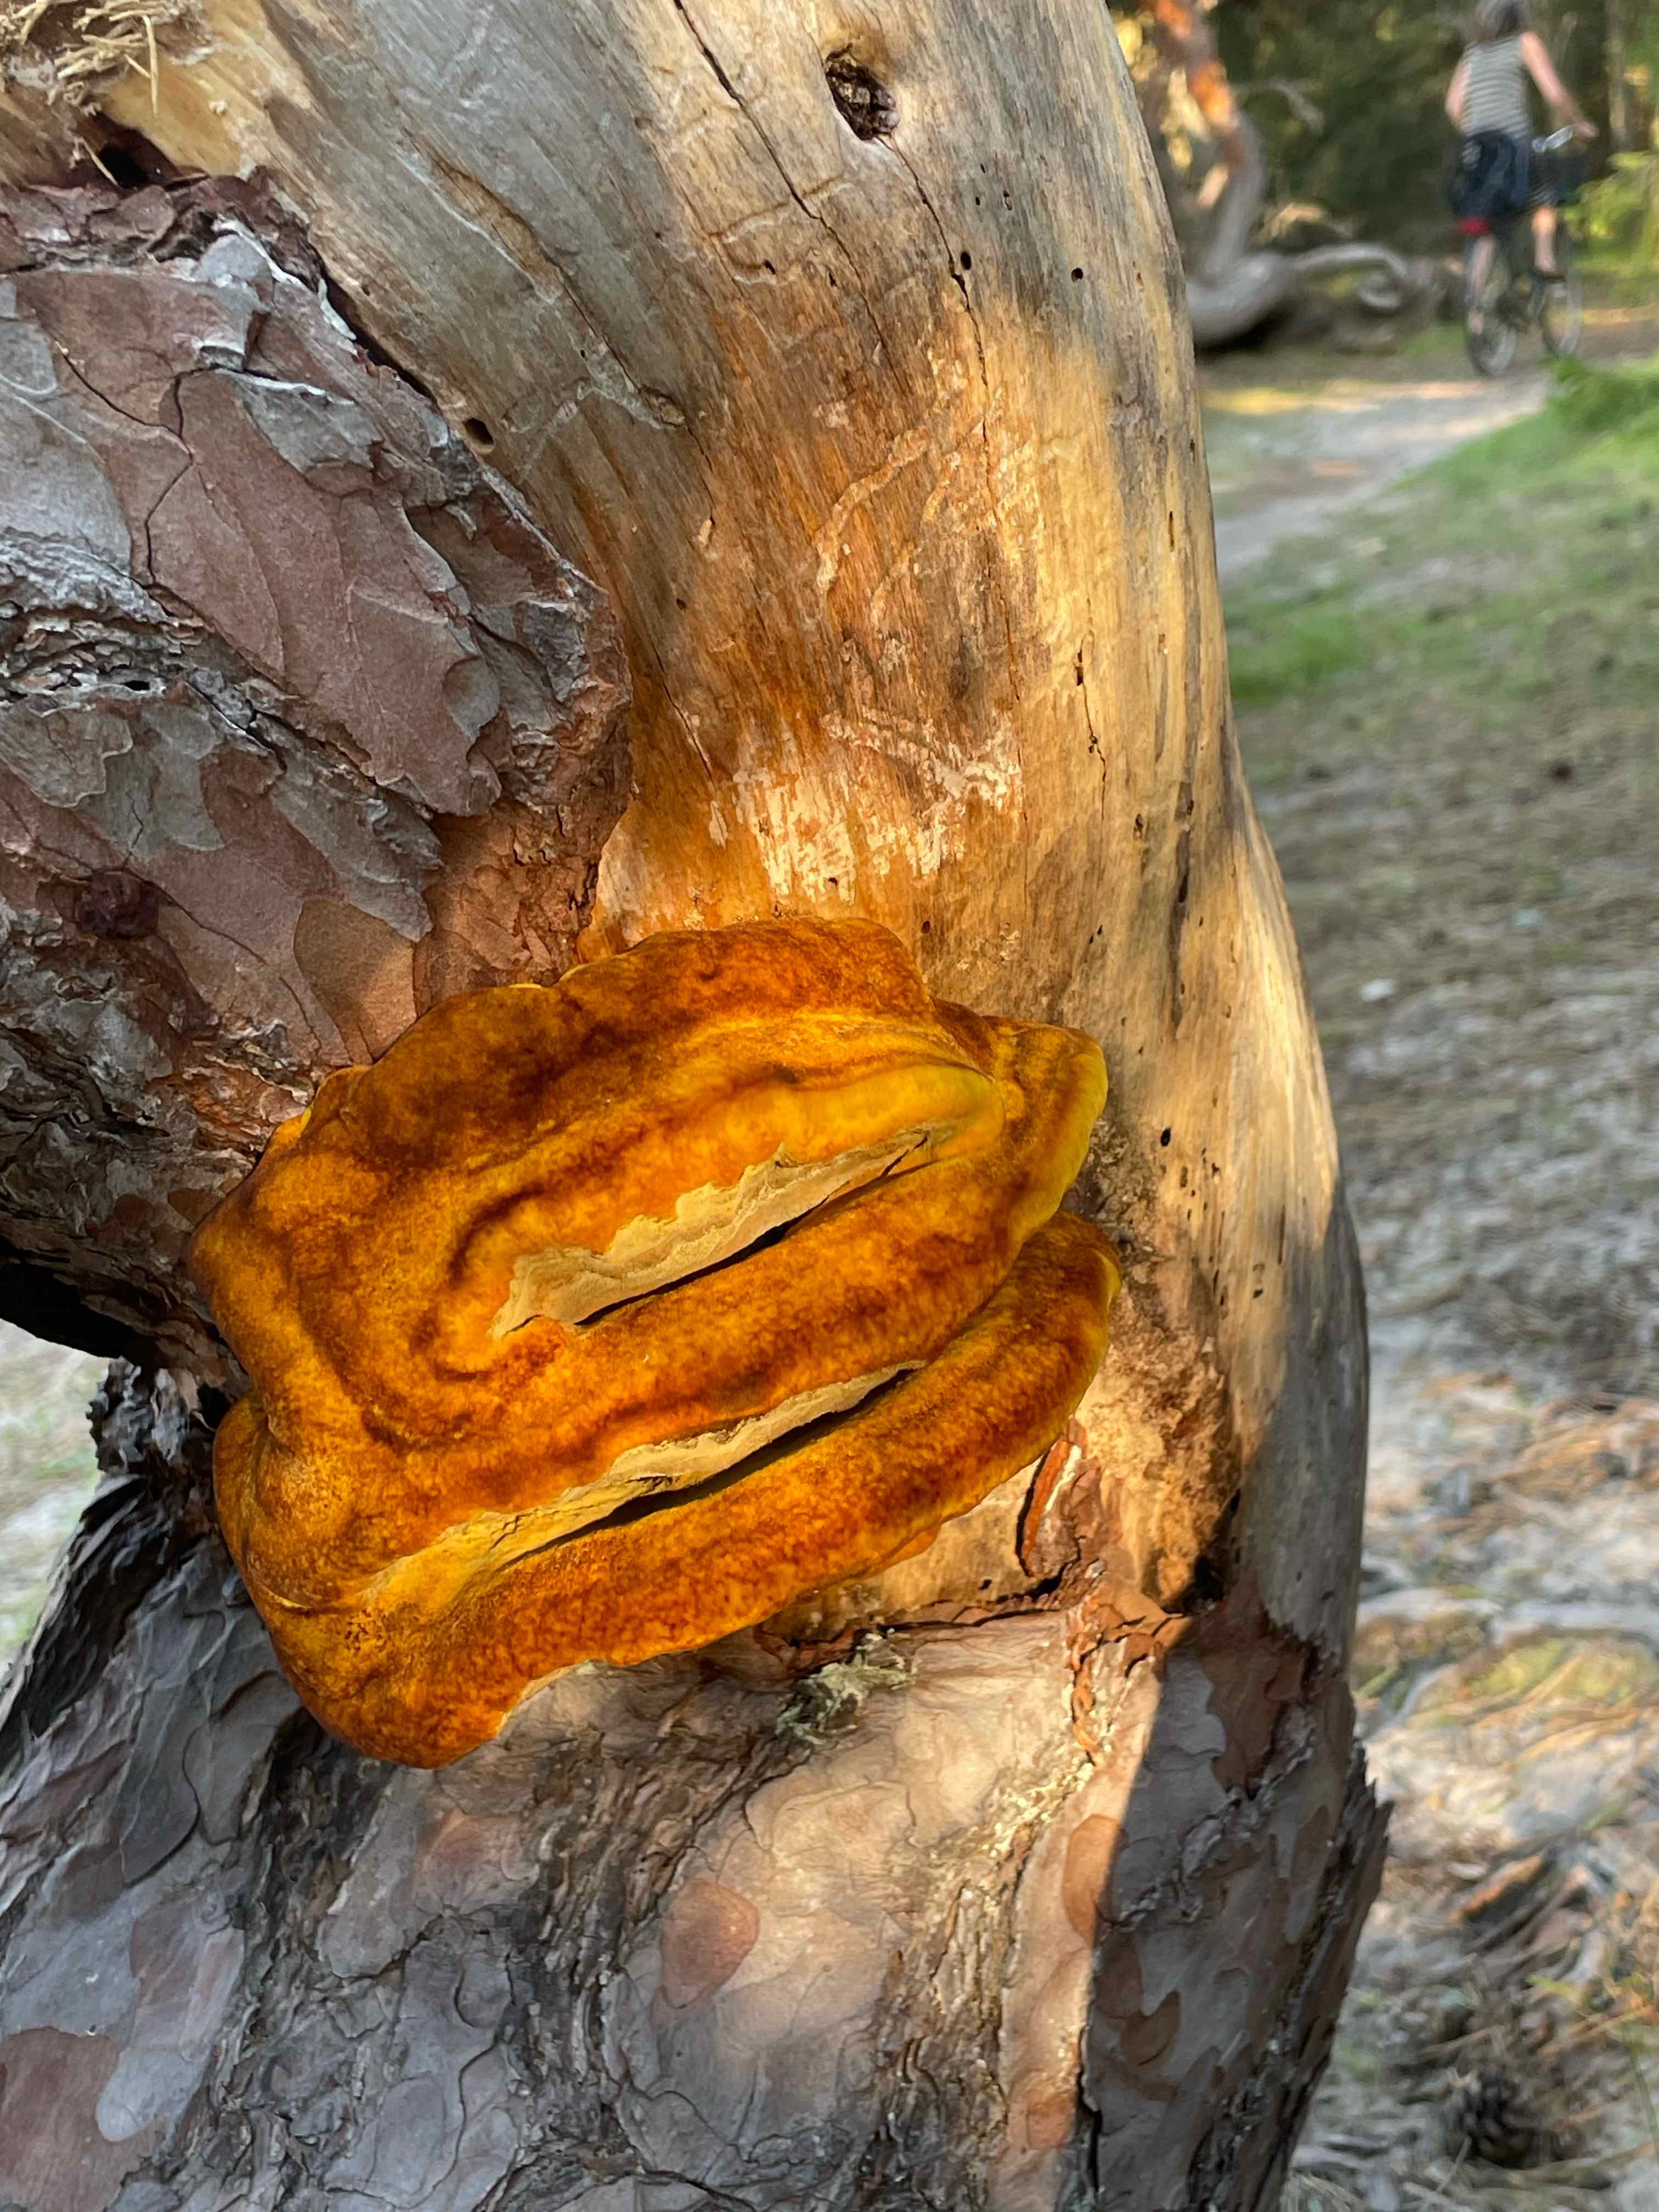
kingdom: Fungi
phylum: Basidiomycota
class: Agaricomycetes
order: Polyporales
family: Laetiporaceae
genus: Phaeolus
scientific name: Phaeolus schweinitzii
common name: brunporesvamp
